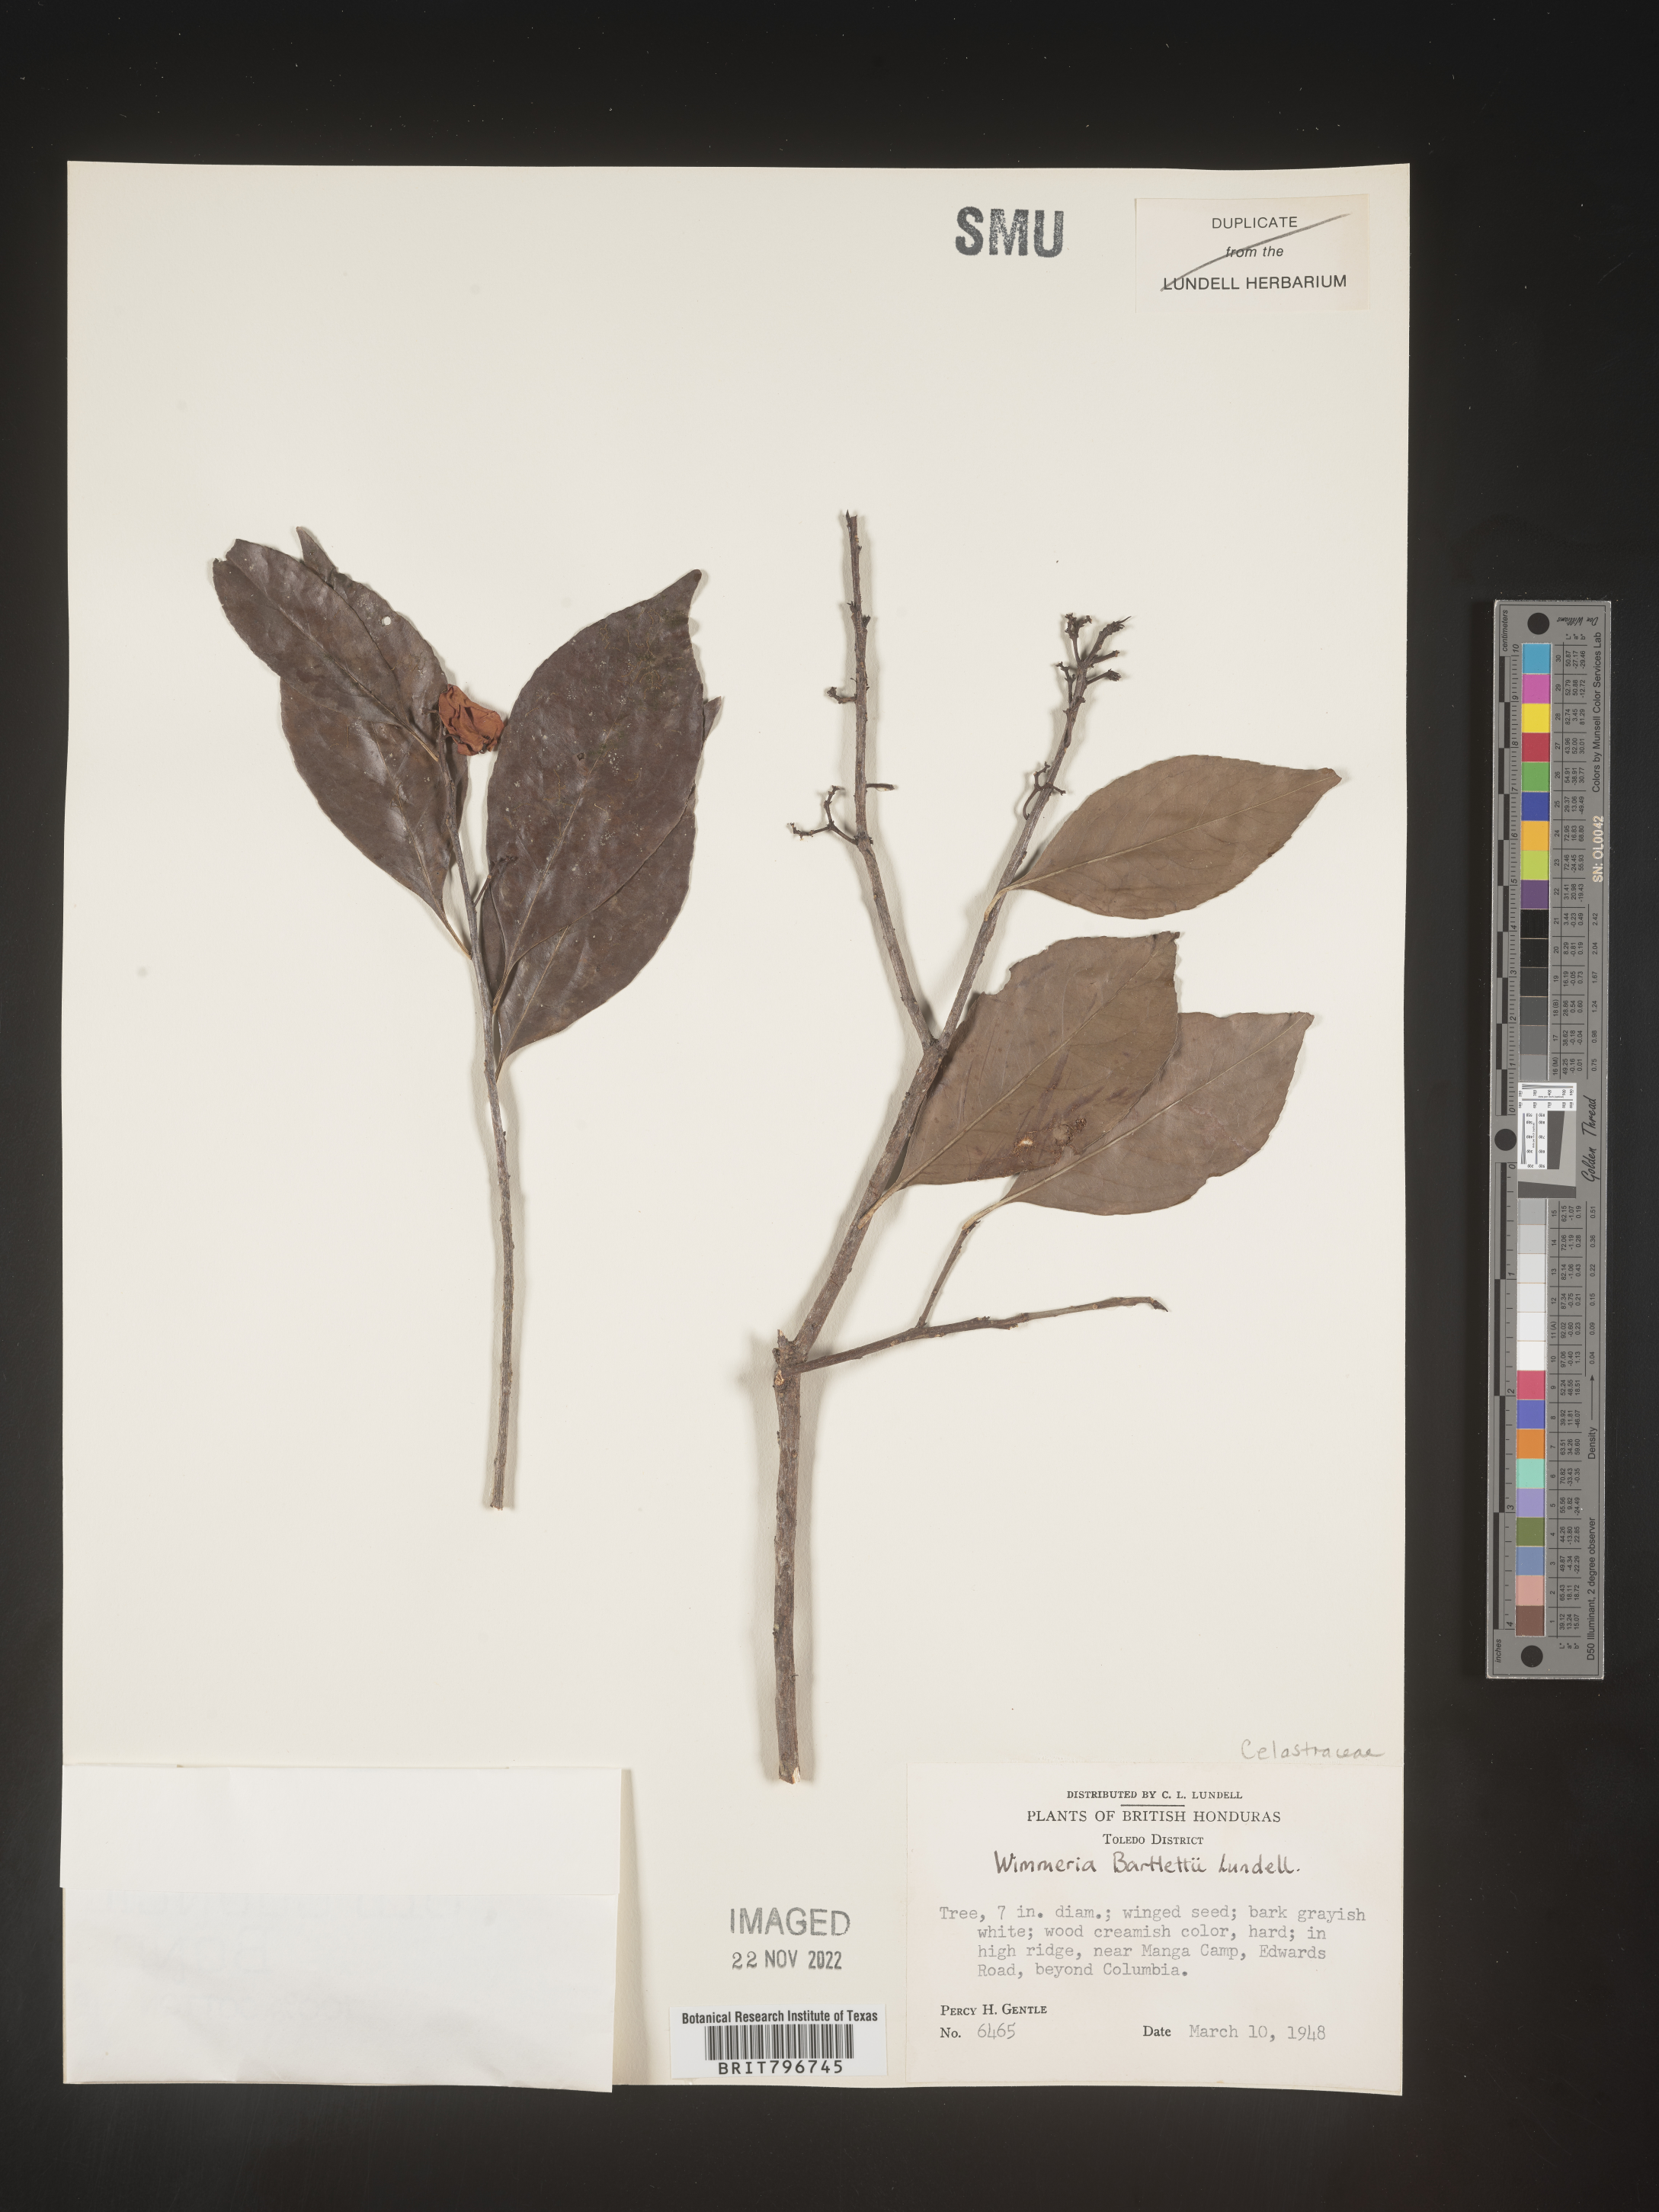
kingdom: Plantae
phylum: Tracheophyta
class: Magnoliopsida
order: Celastrales
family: Celastraceae
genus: Wimmeria
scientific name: Wimmeria
